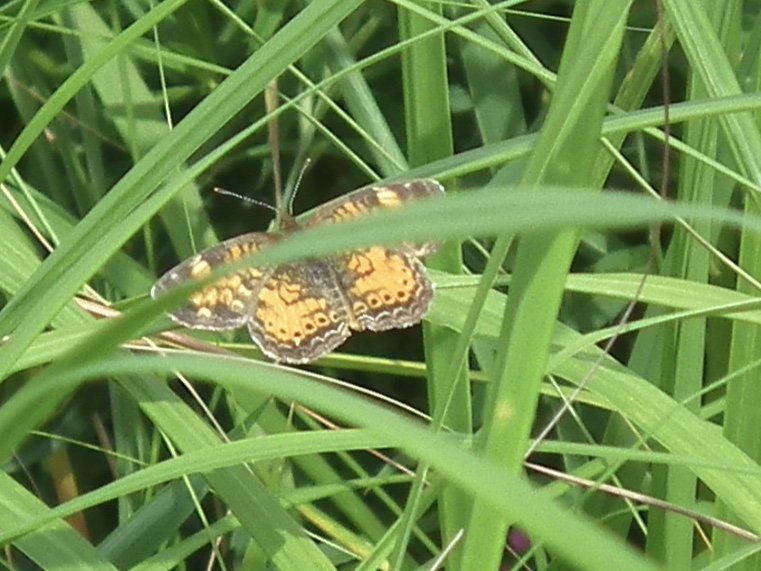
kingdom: Animalia
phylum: Arthropoda
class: Insecta
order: Lepidoptera
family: Nymphalidae
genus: Phyciodes
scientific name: Phyciodes tharos
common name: Northern Crescent
